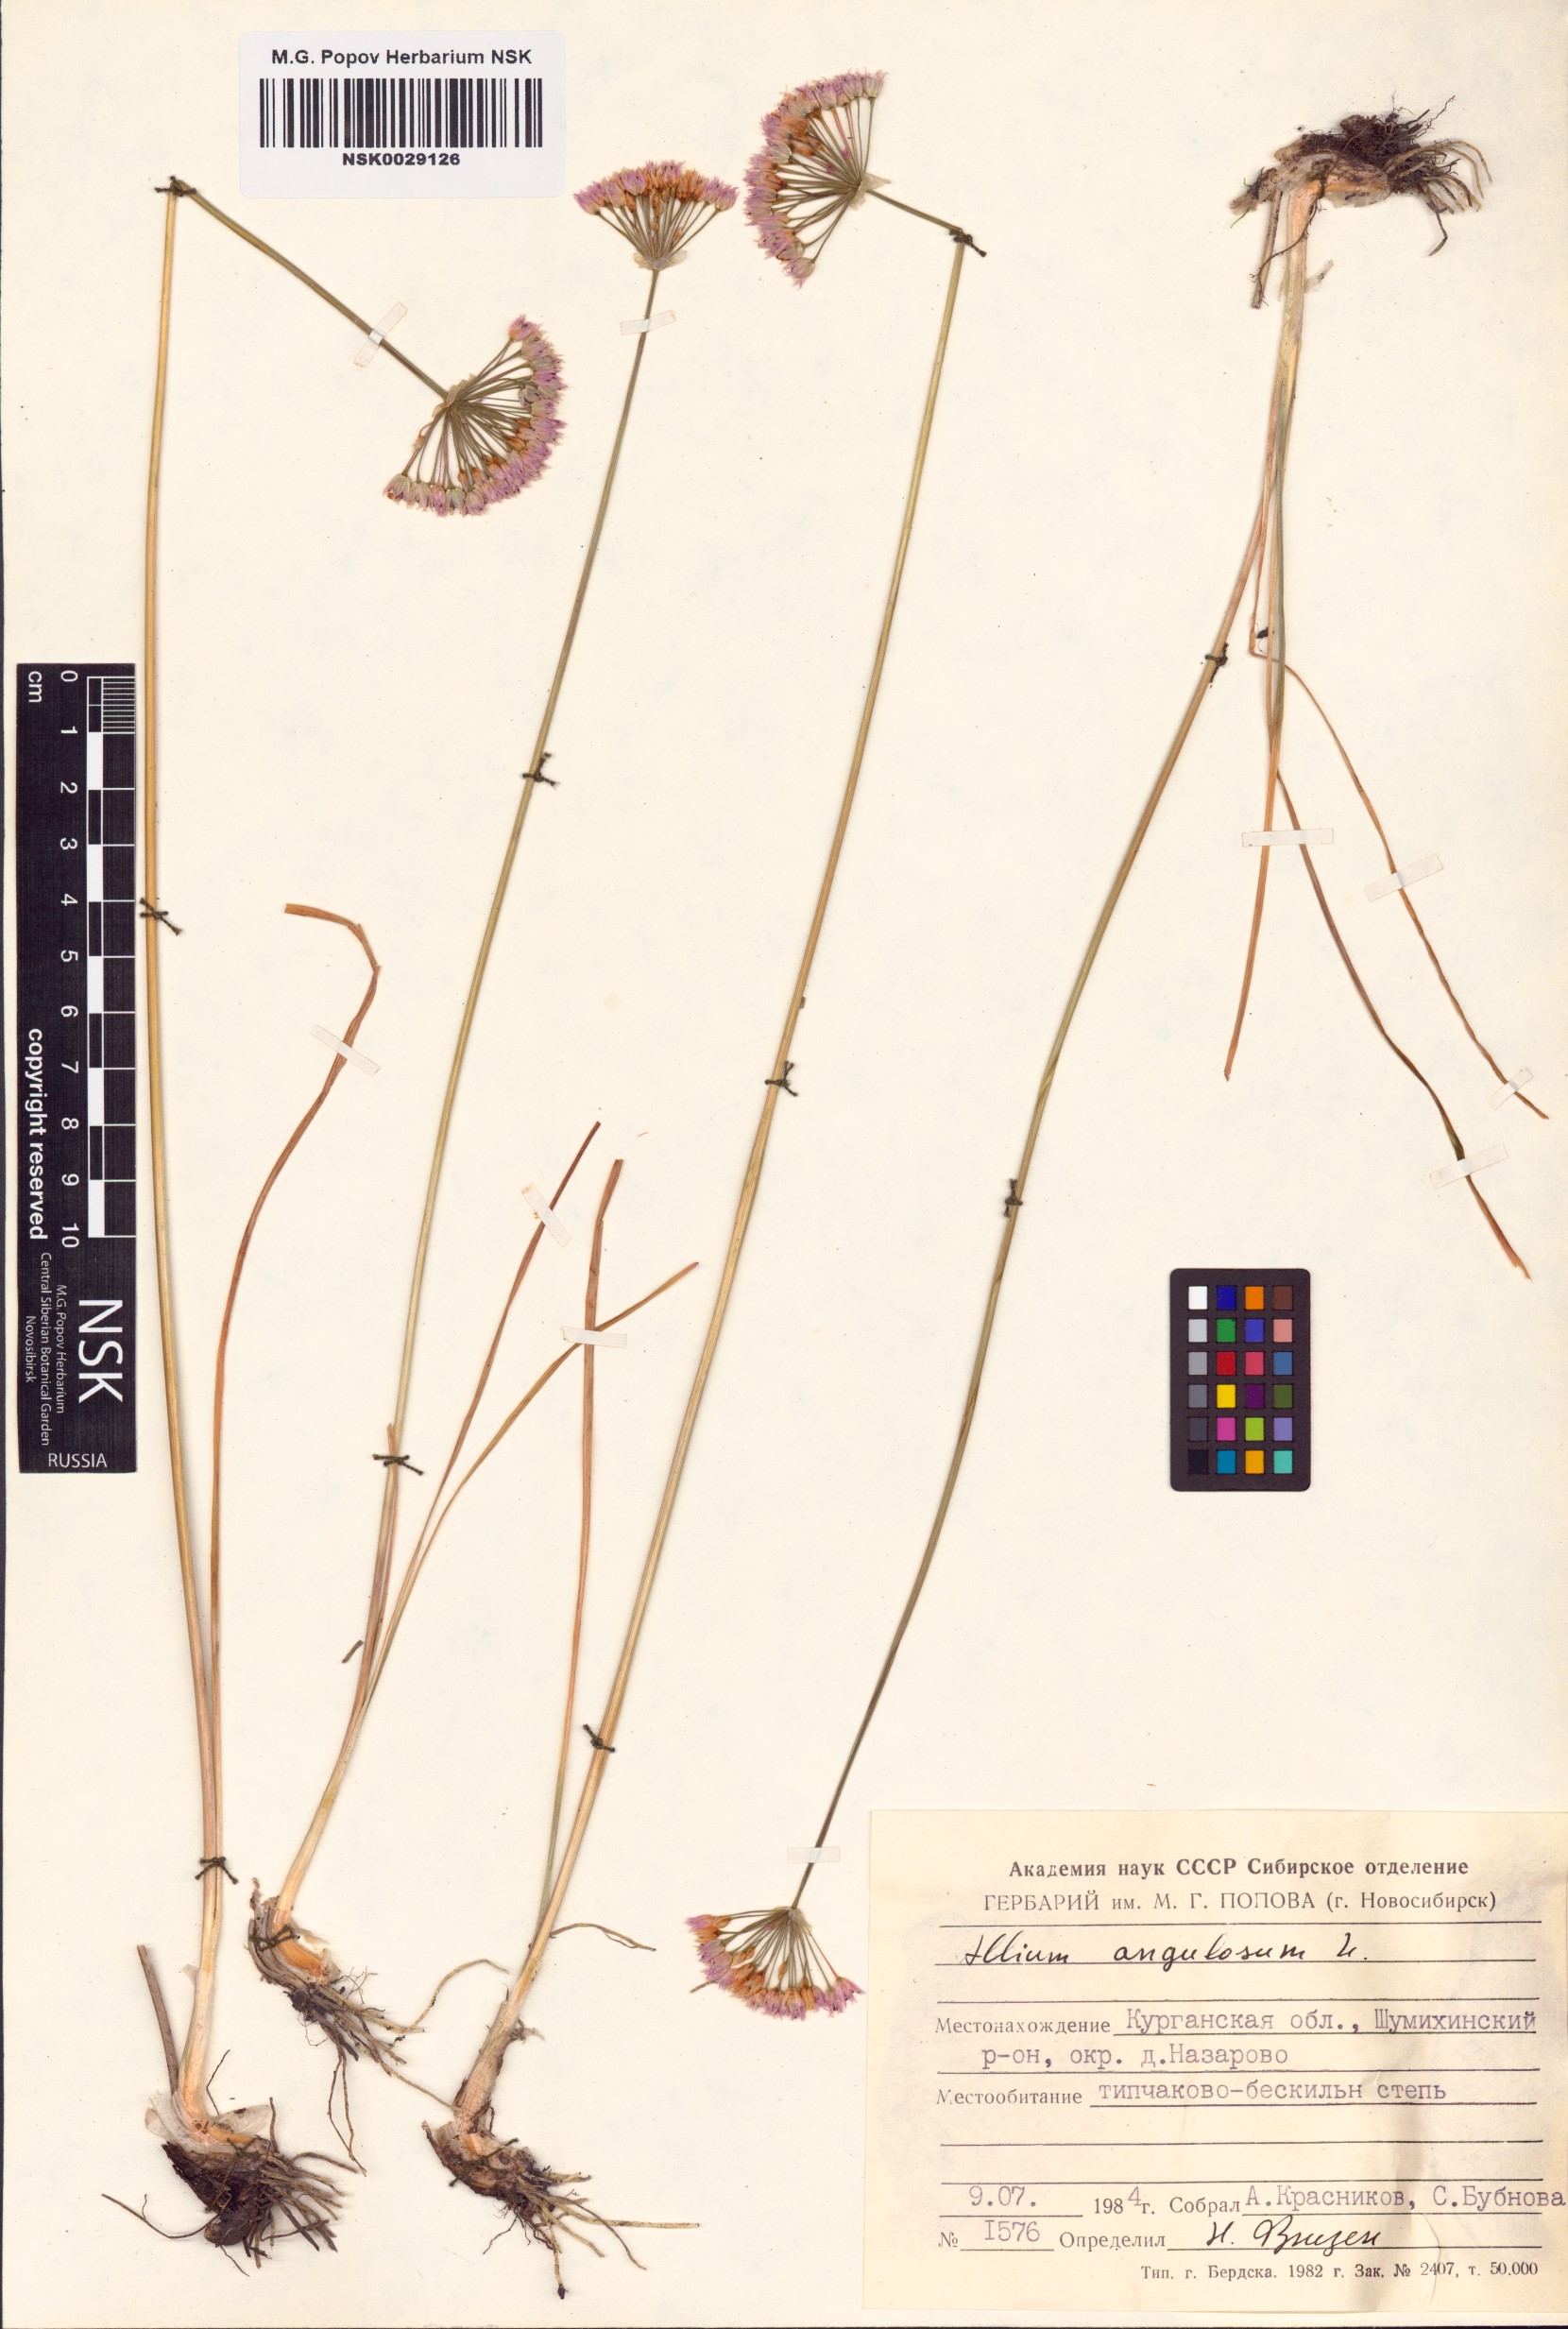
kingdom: Plantae
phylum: Tracheophyta
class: Liliopsida
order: Asparagales
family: Amaryllidaceae
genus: Allium
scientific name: Allium angulosum
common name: Mouse garlic
